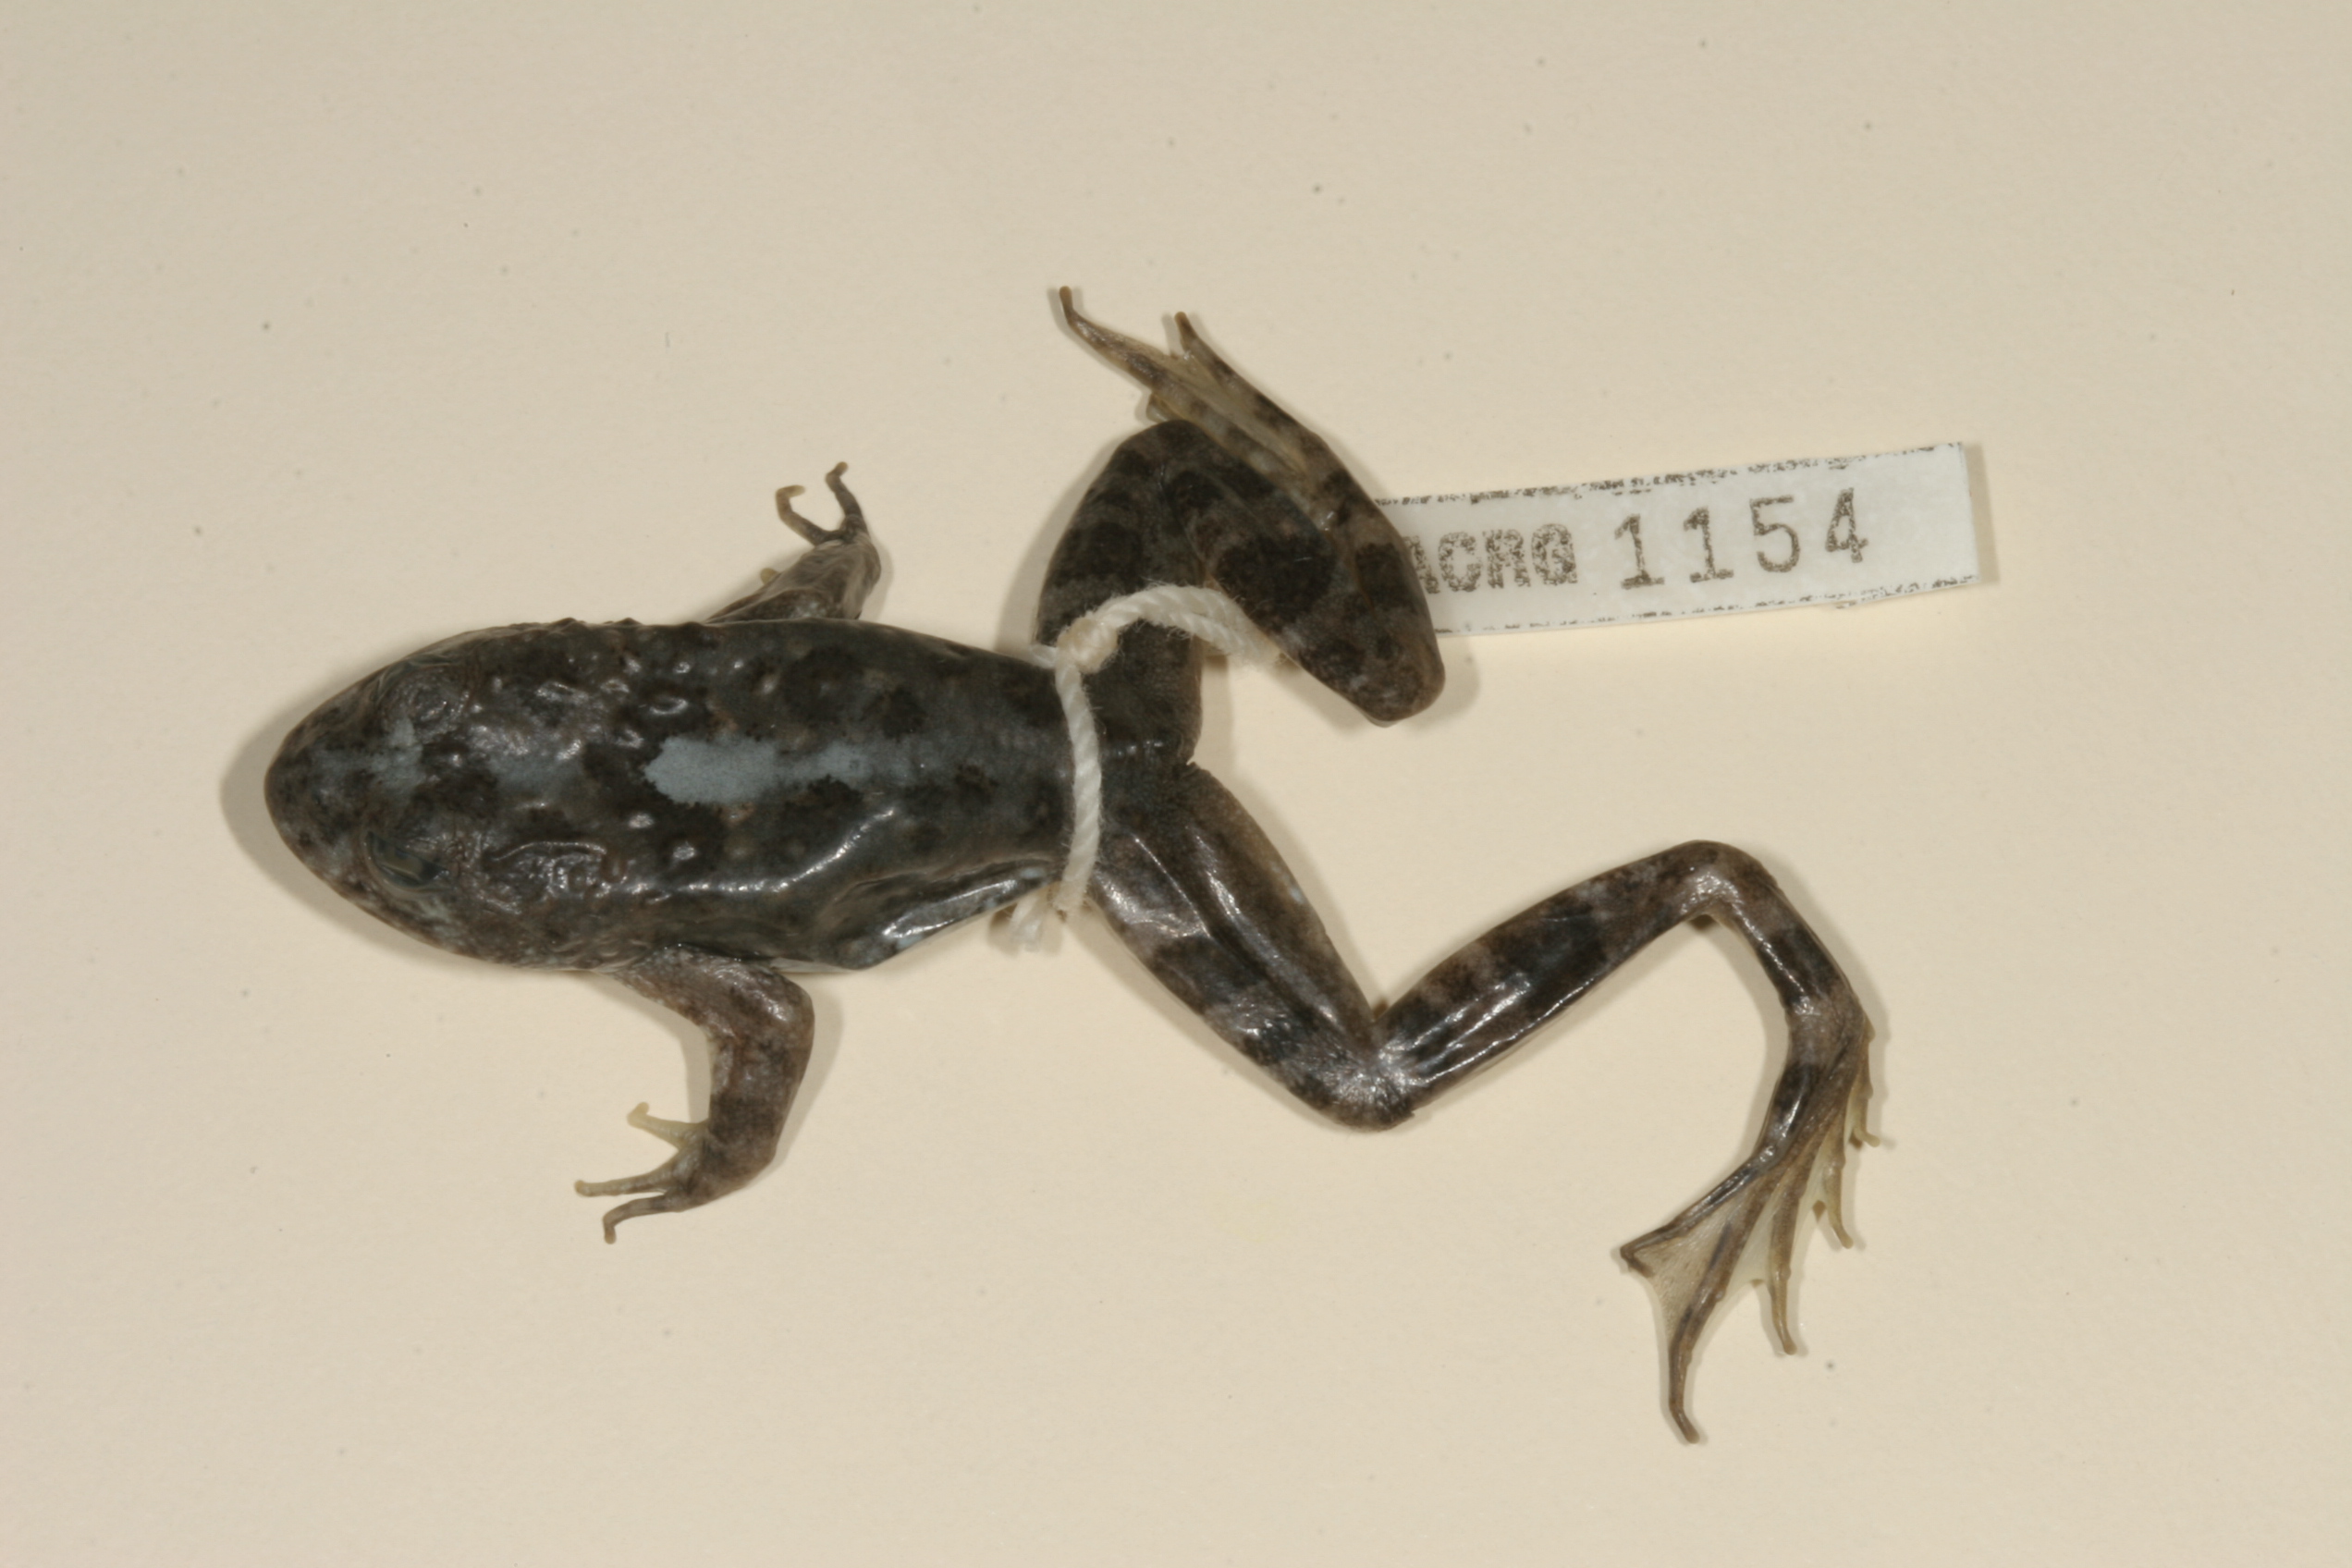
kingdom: Animalia
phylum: Chordata
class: Amphibia
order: Anura
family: Pyxicephalidae
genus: Amietia
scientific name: Amietia vertebralis
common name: Drakensberg stream frog
